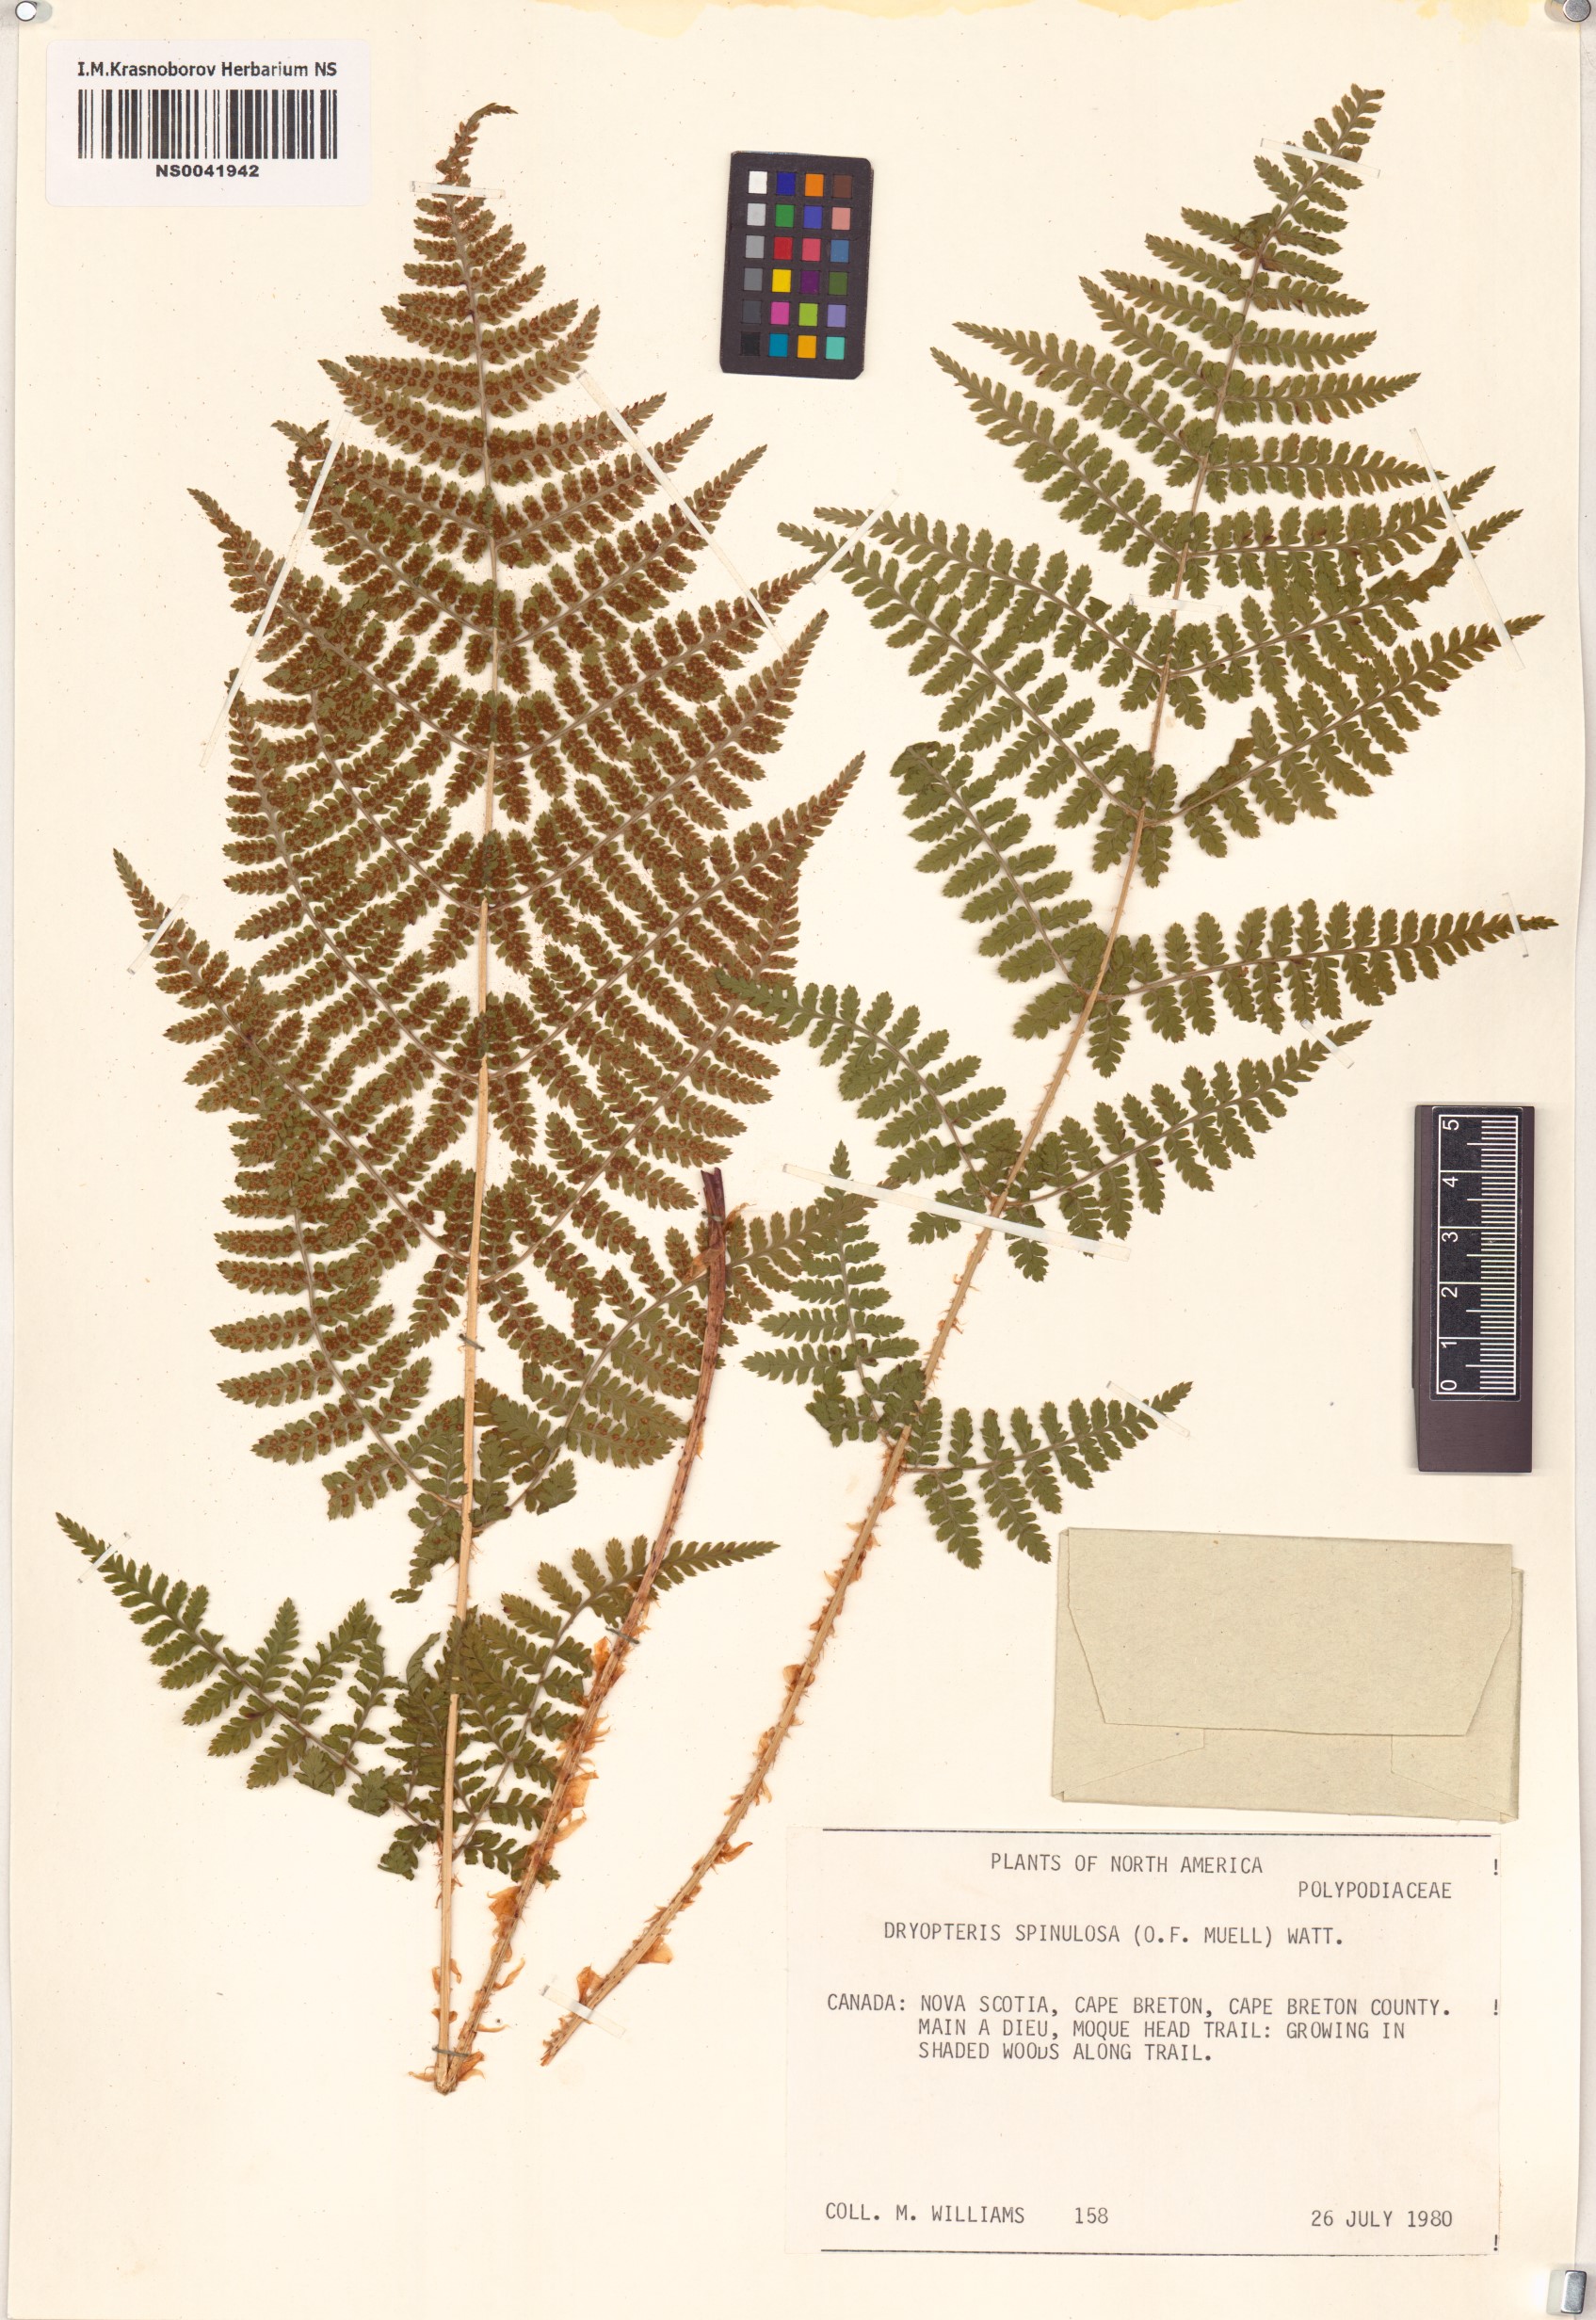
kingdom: Plantae
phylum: Tracheophyta
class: Polypodiopsida
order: Polypodiales
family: Dryopteridaceae
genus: Dryopteris
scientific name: Dryopteris carthusiana
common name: Narrow buckler-fern
